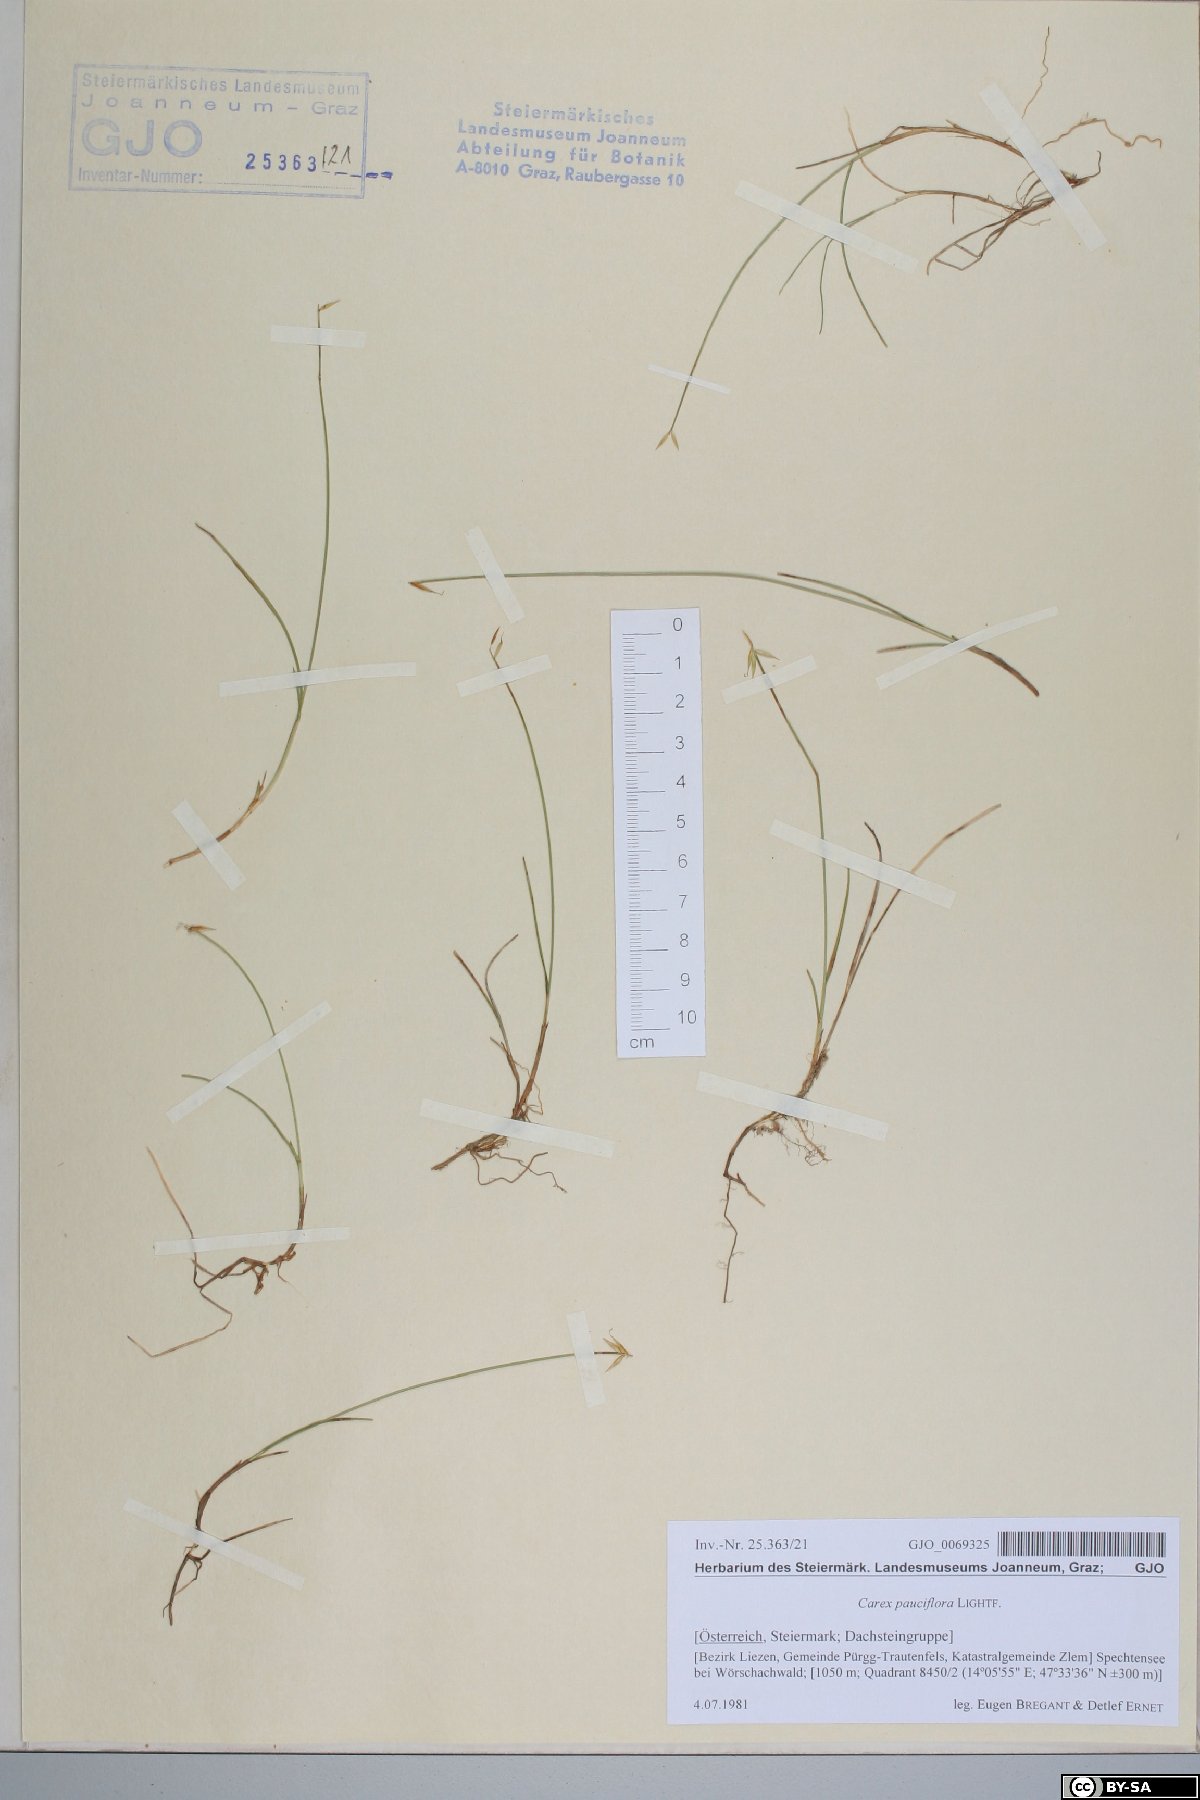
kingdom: Plantae
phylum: Tracheophyta
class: Liliopsida
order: Poales
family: Cyperaceae
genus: Carex
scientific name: Carex pauciflora
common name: Few-flowered sedge
